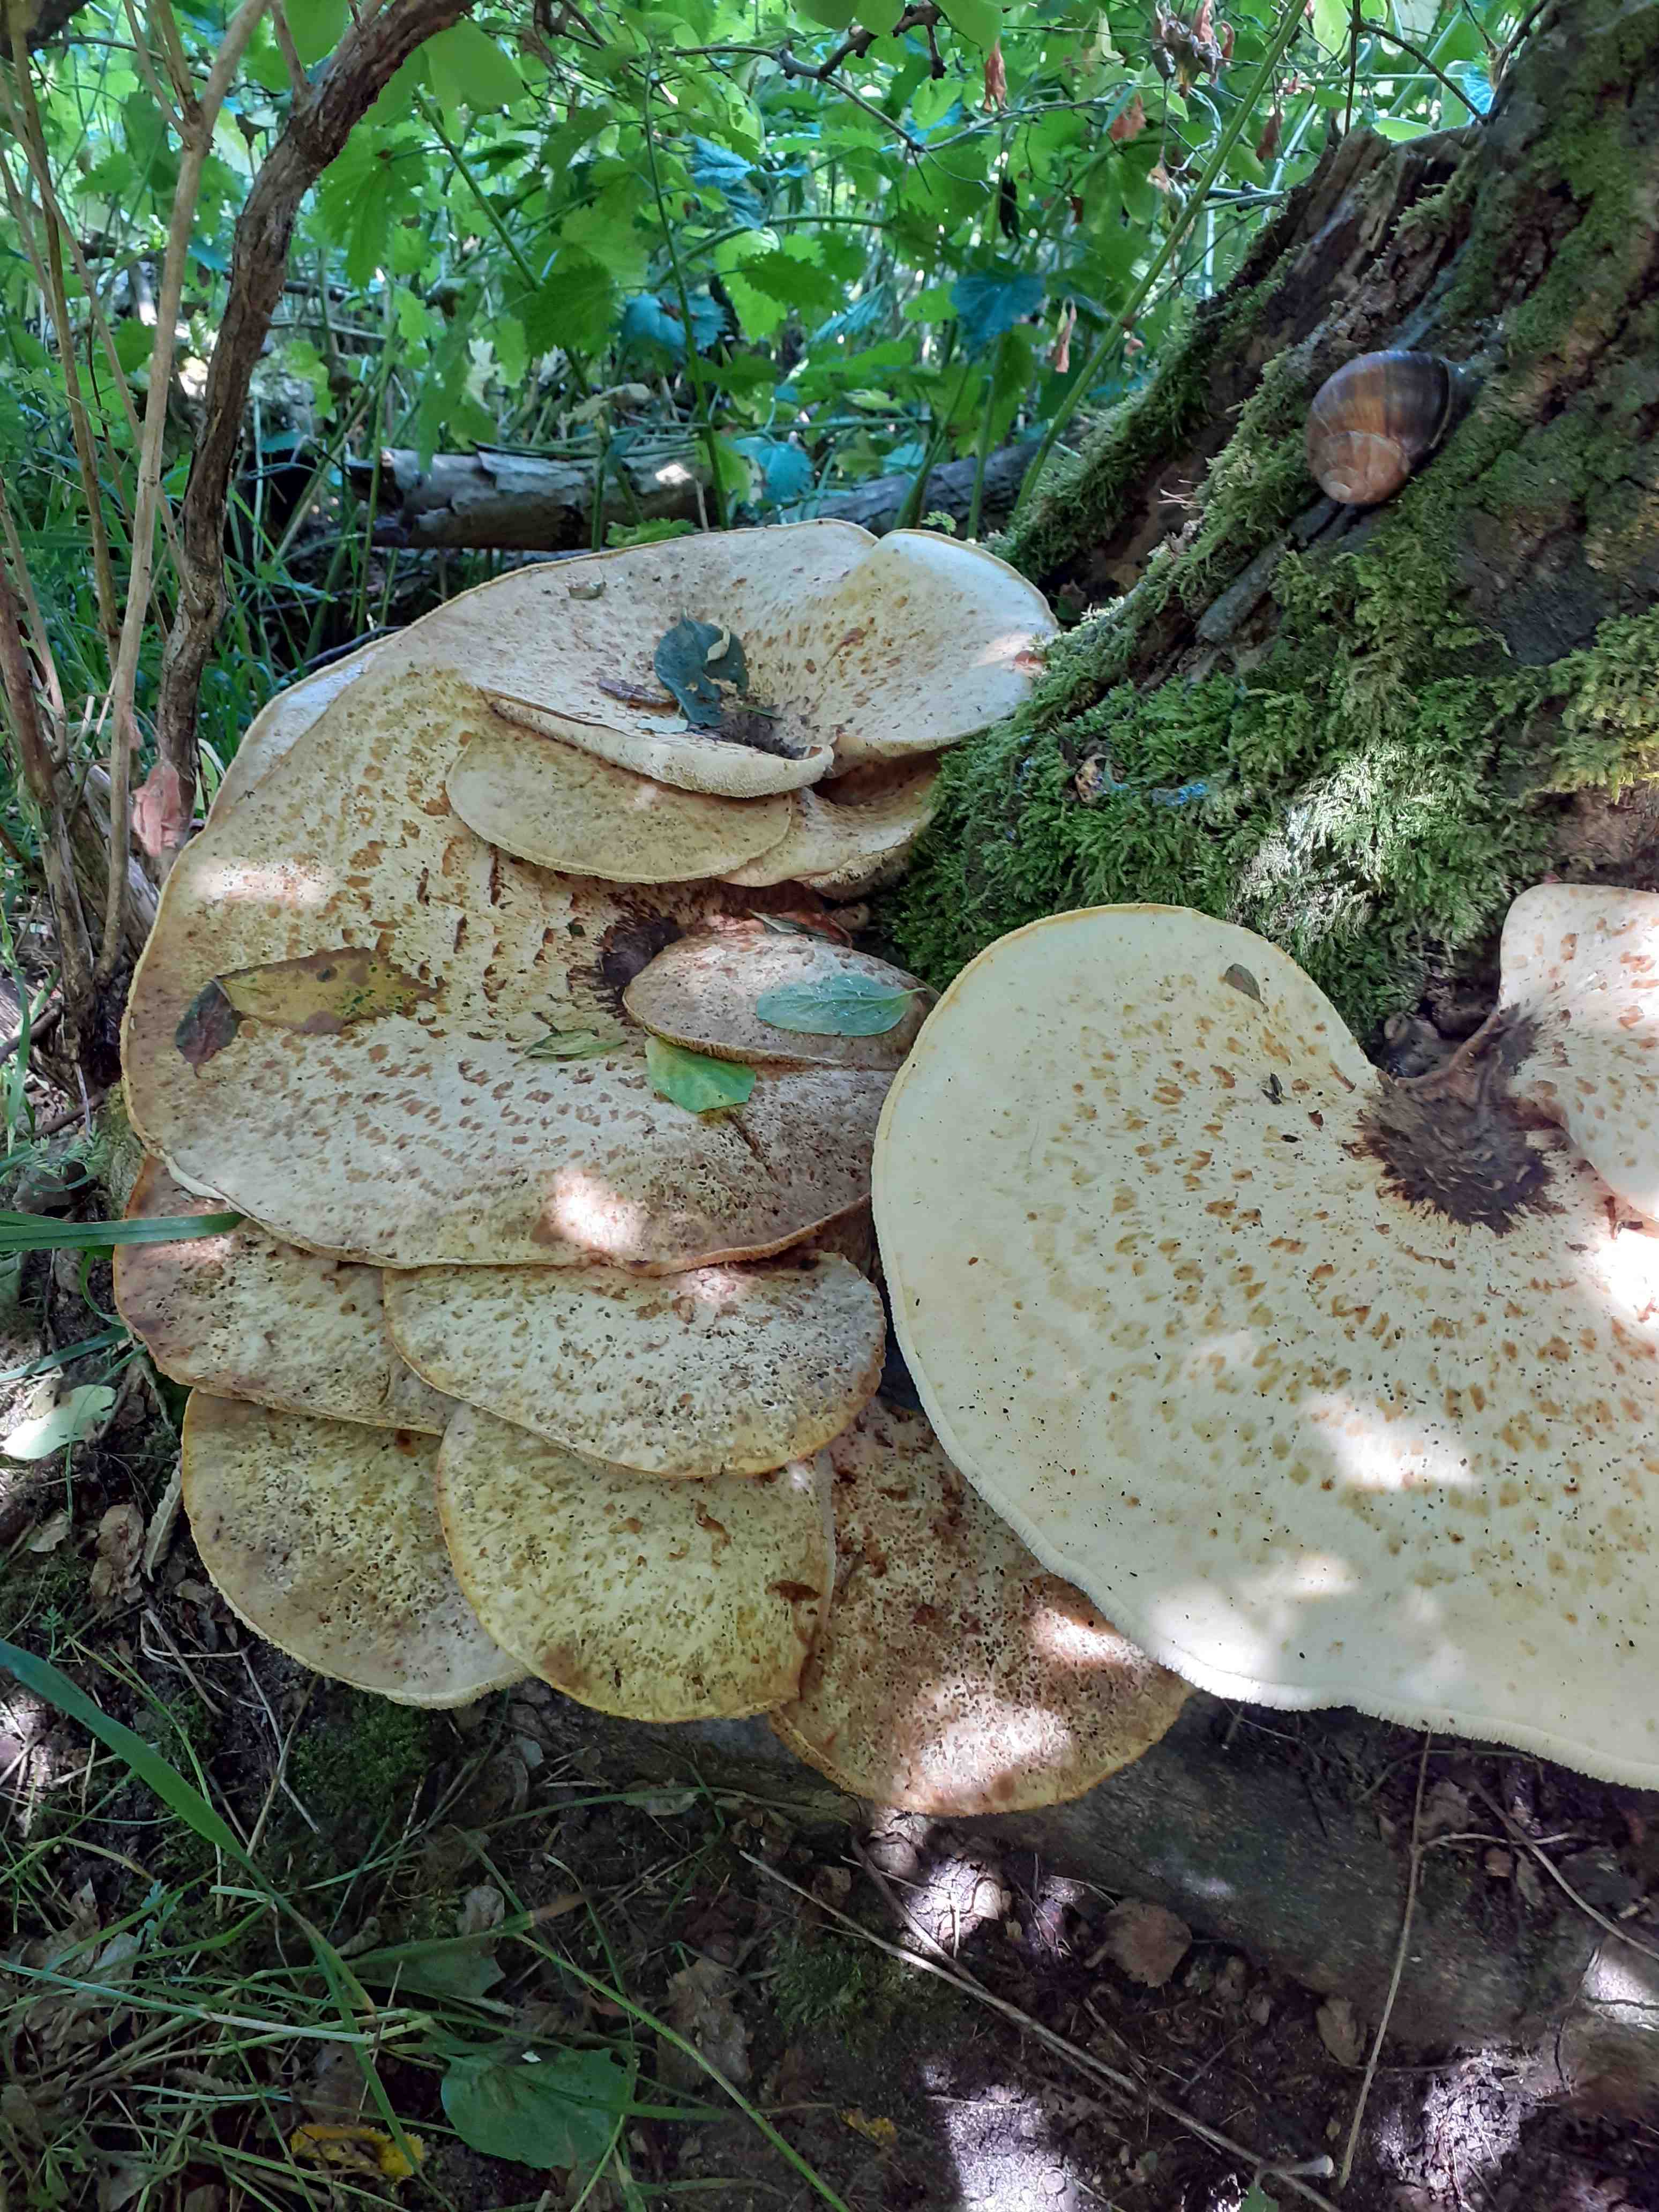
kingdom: Fungi
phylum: Basidiomycota
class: Agaricomycetes
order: Polyporales
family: Polyporaceae
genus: Cerioporus
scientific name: Cerioporus squamosus
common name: skællet stilkporesvamp
